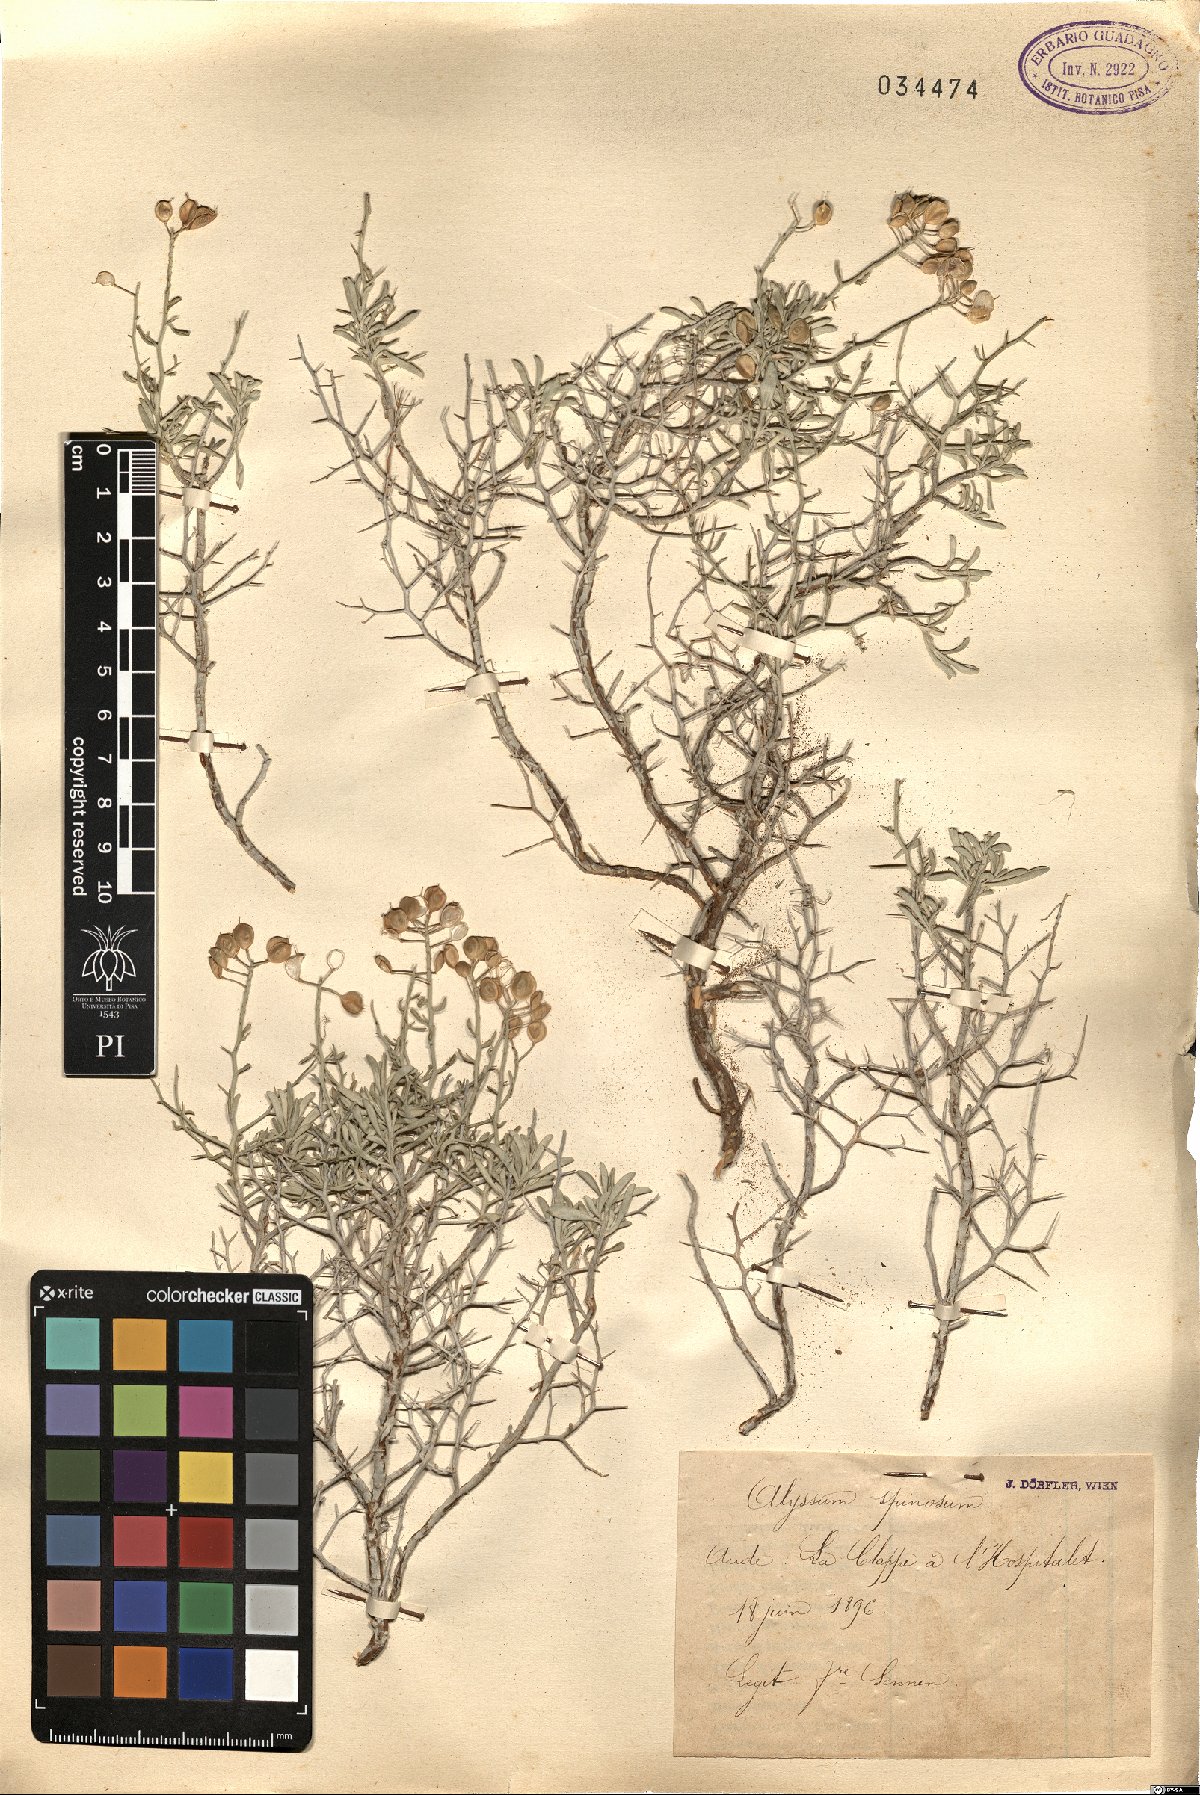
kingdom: Plantae
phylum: Tracheophyta
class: Magnoliopsida
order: Brassicales
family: Brassicaceae
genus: Hormathophylla
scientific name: Hormathophylla spinosa
